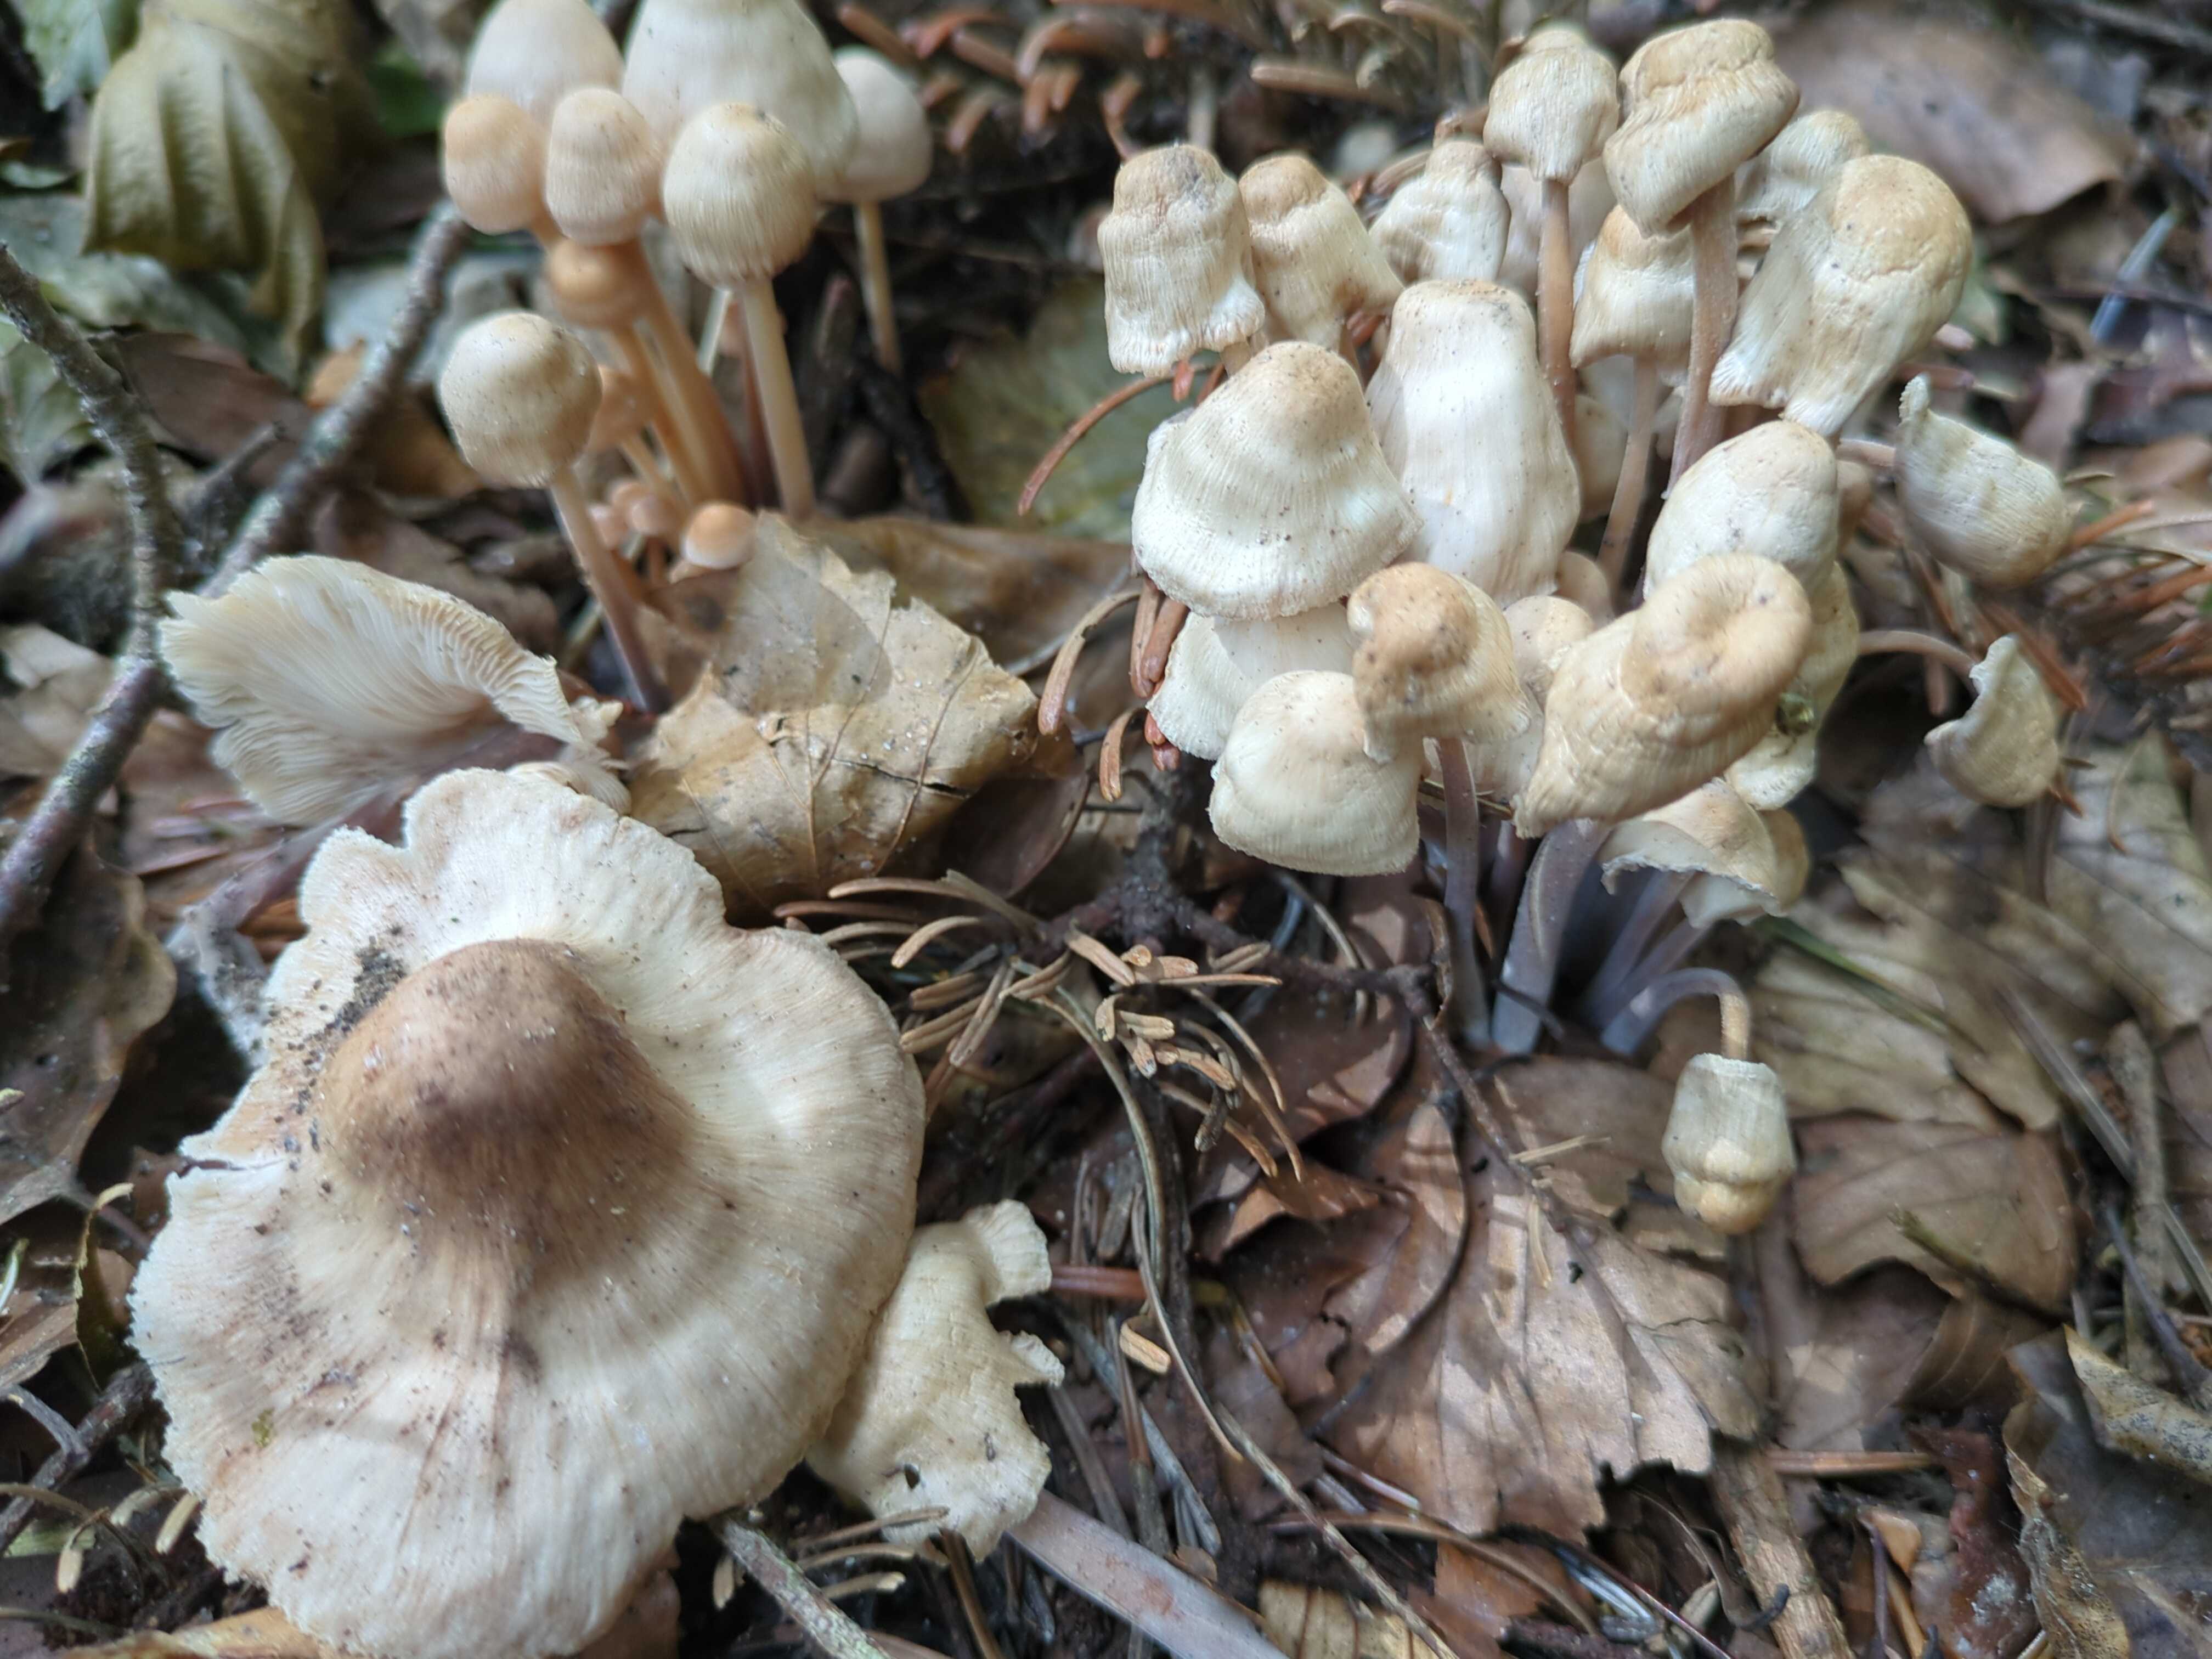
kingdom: Fungi
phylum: Basidiomycota
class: Agaricomycetes
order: Agaricales
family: Omphalotaceae
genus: Collybiopsis
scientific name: Collybiopsis confluens
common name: knippe-fladhat
